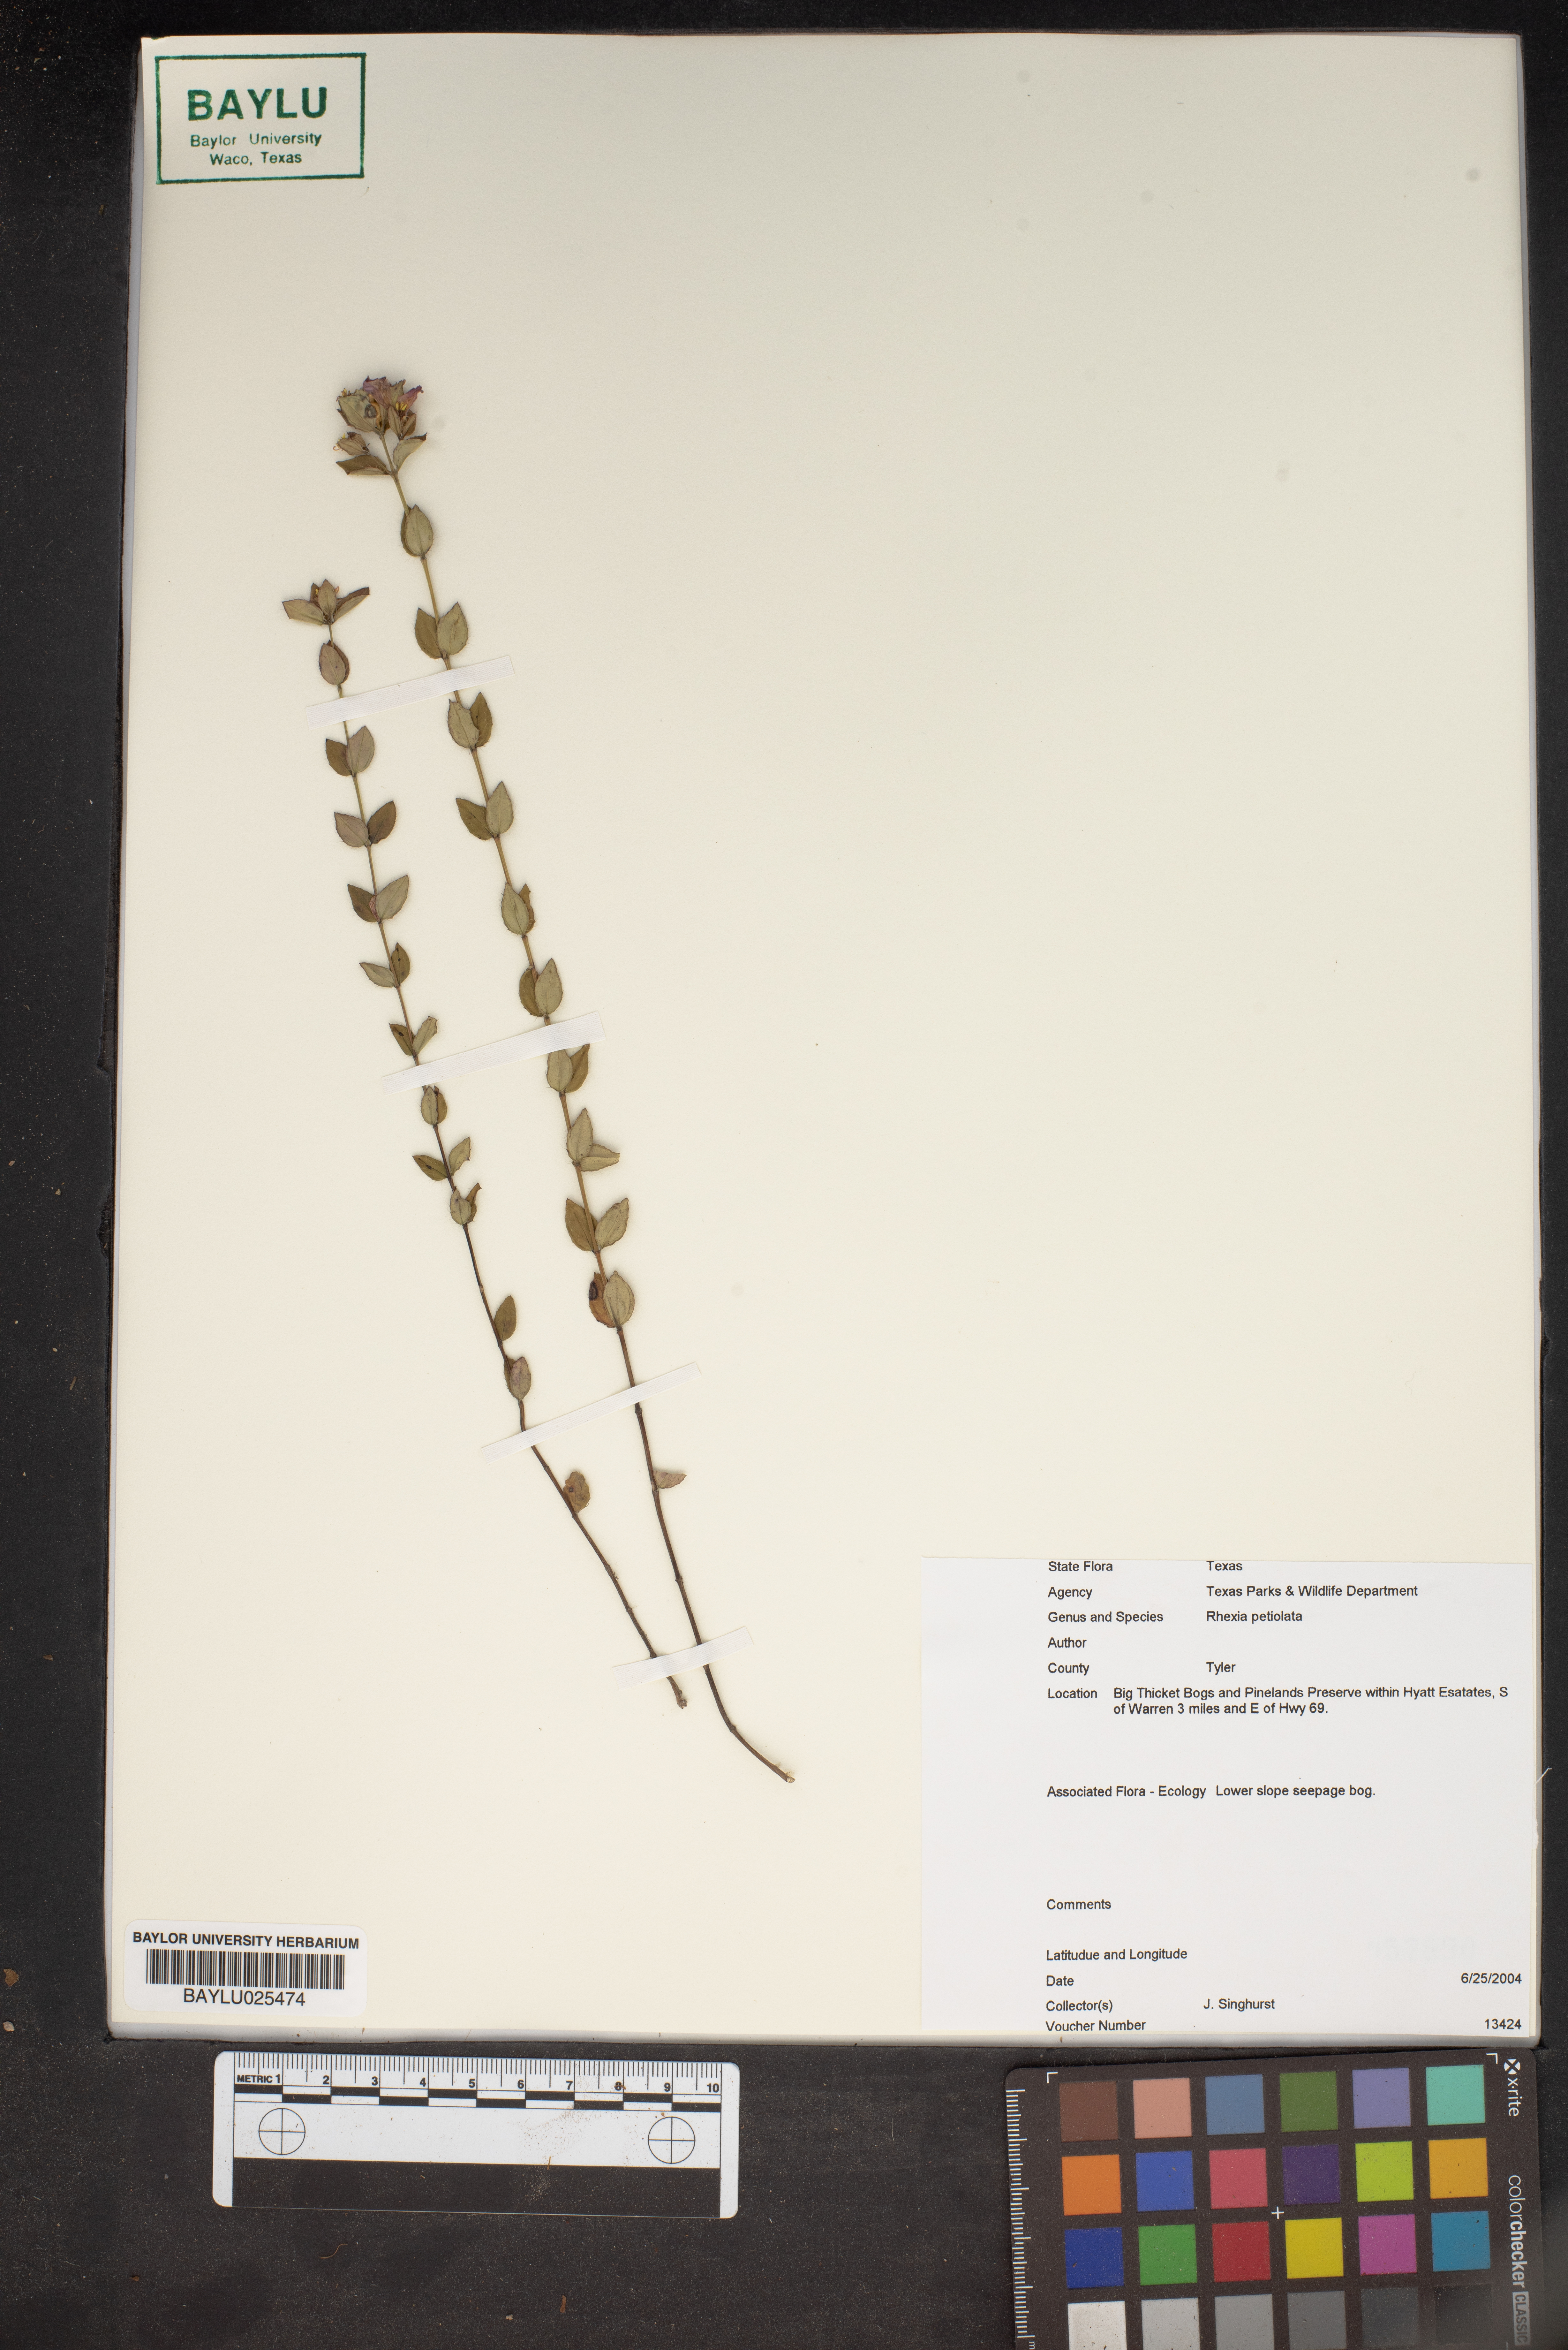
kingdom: Plantae
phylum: Tracheophyta
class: Magnoliopsida
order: Myrtales
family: Melastomataceae
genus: Rhexia
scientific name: Rhexia petiolata
